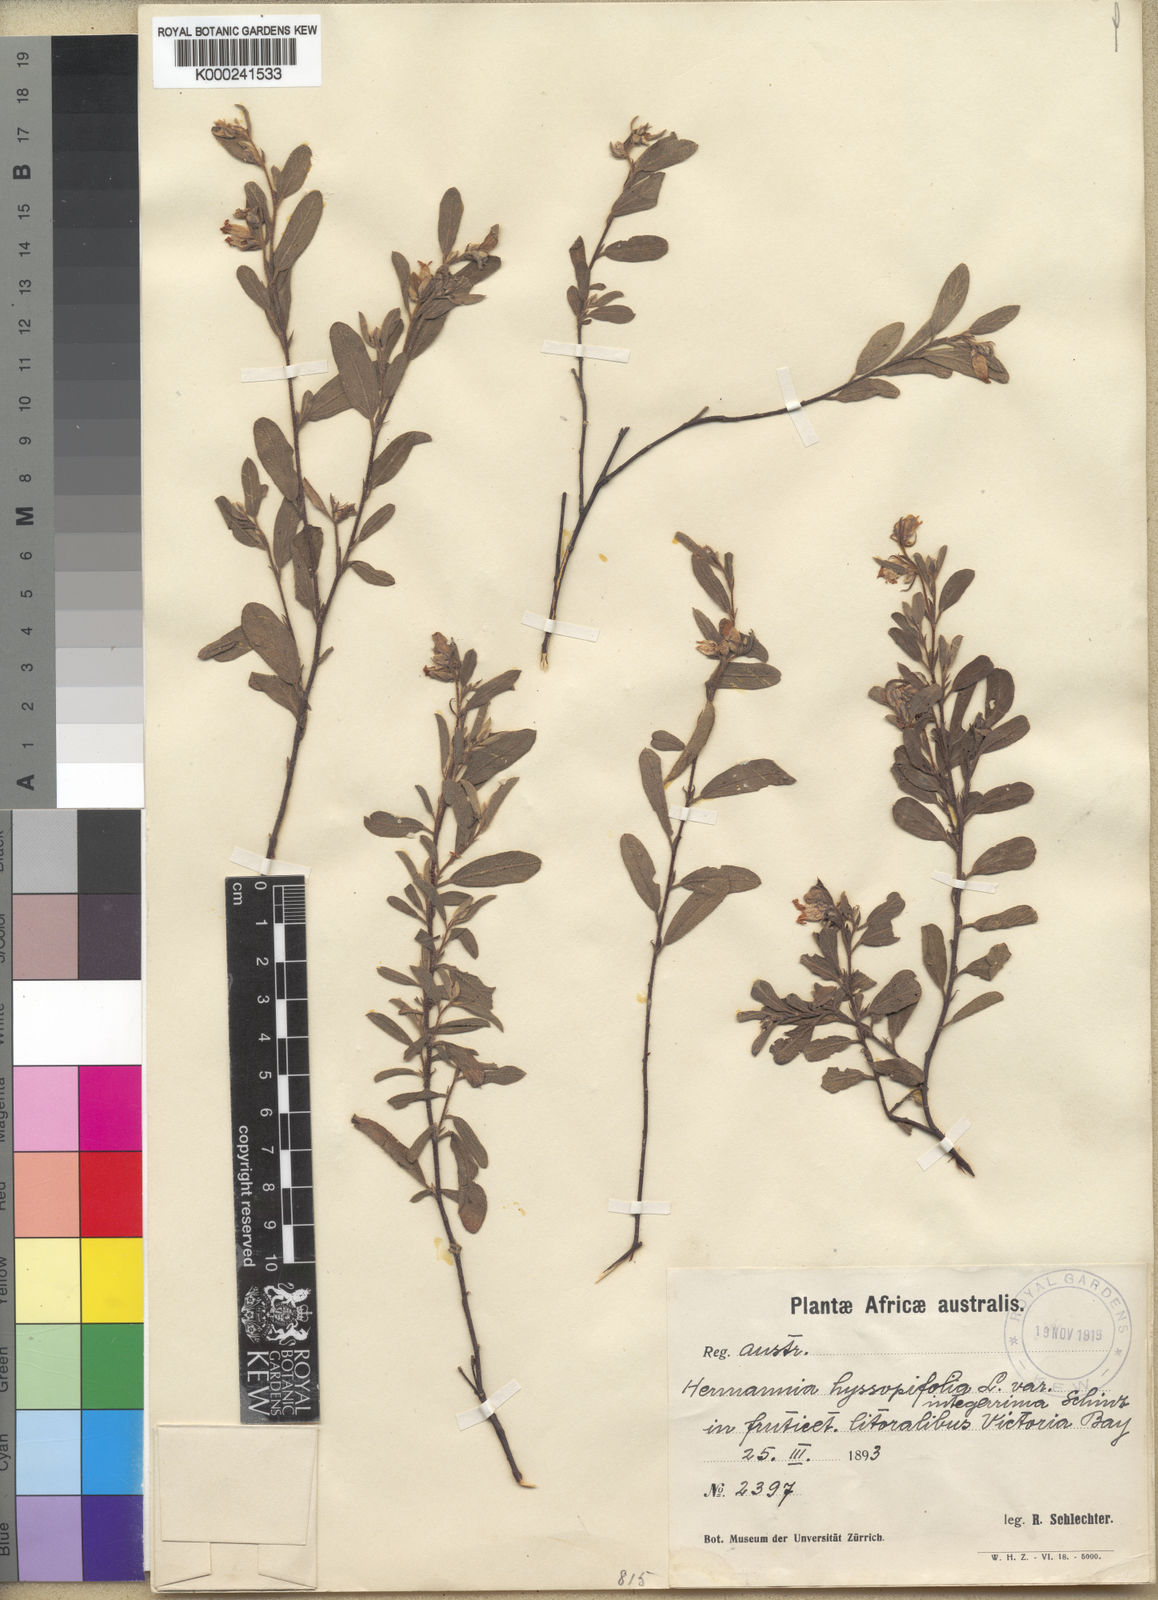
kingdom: Plantae
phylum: Tracheophyta
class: Magnoliopsida
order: Malvales
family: Malvaceae
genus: Hermannia
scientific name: Hermannia hyssopifolia
